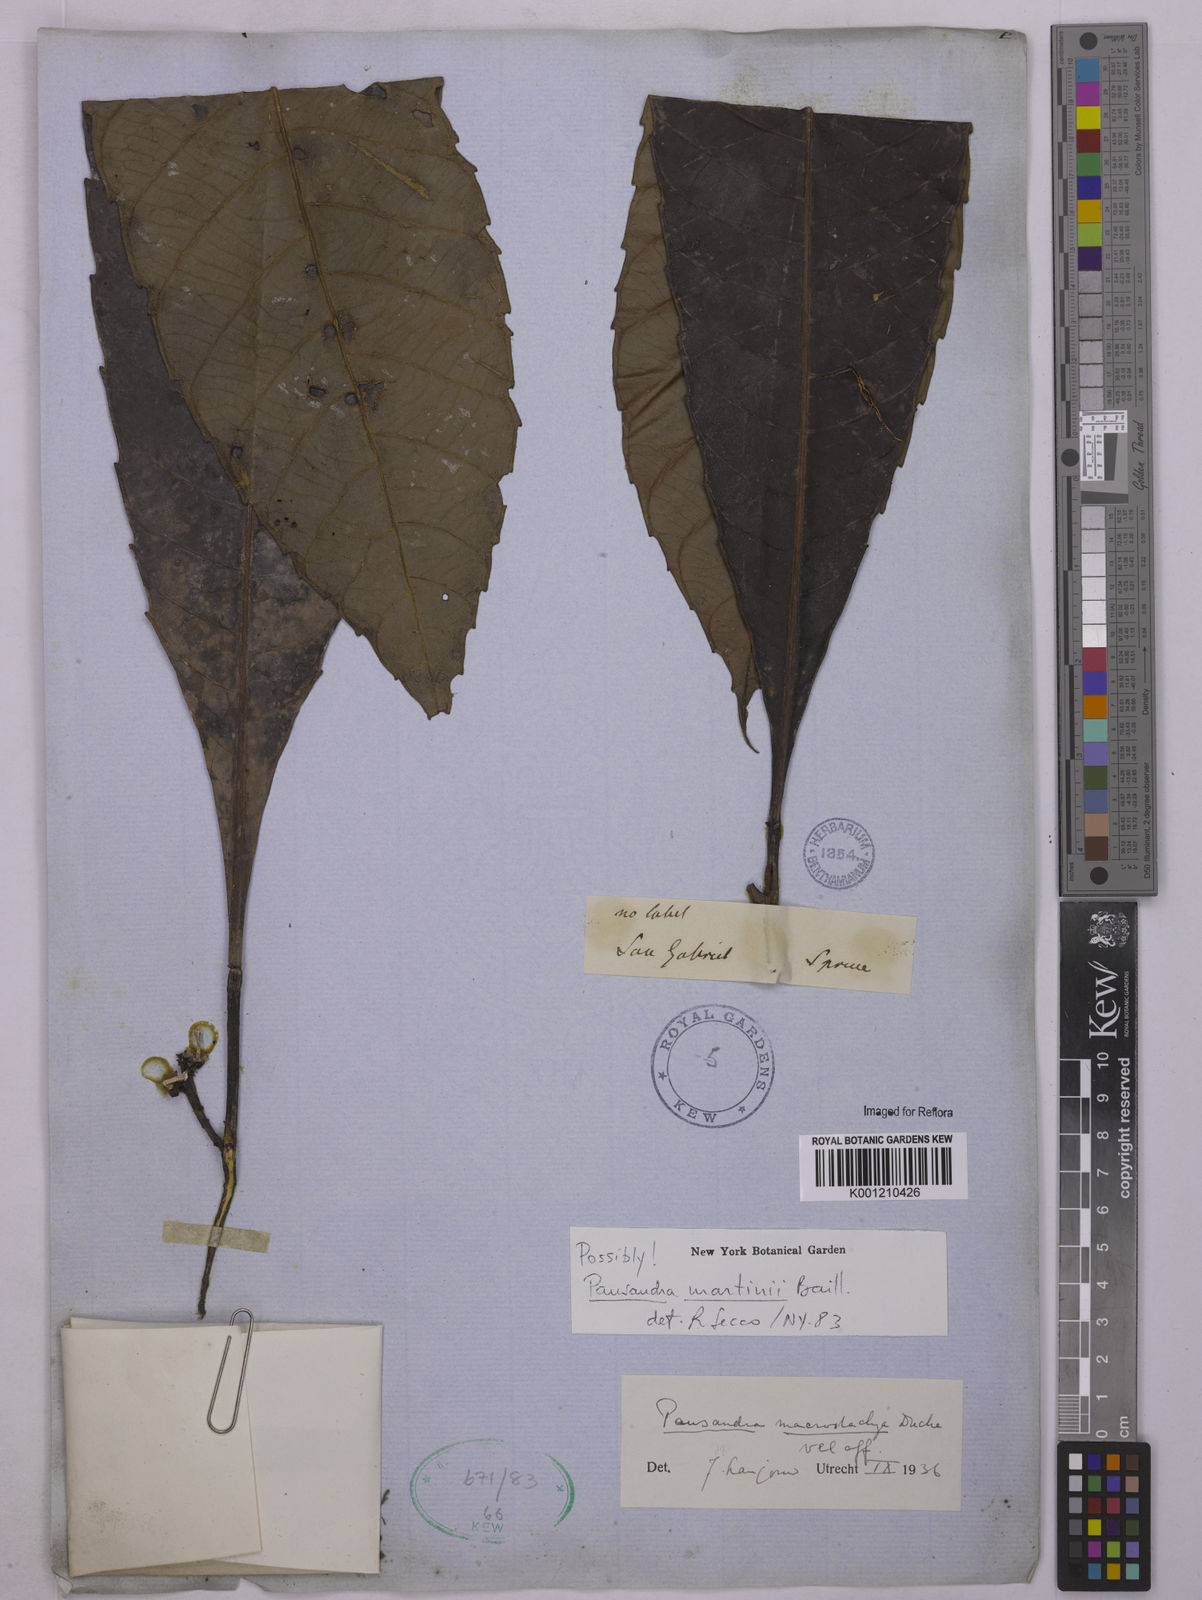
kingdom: Plantae
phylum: Tracheophyta
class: Magnoliopsida
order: Malpighiales
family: Euphorbiaceae
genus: Pausandra
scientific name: Pausandra macrostachya
